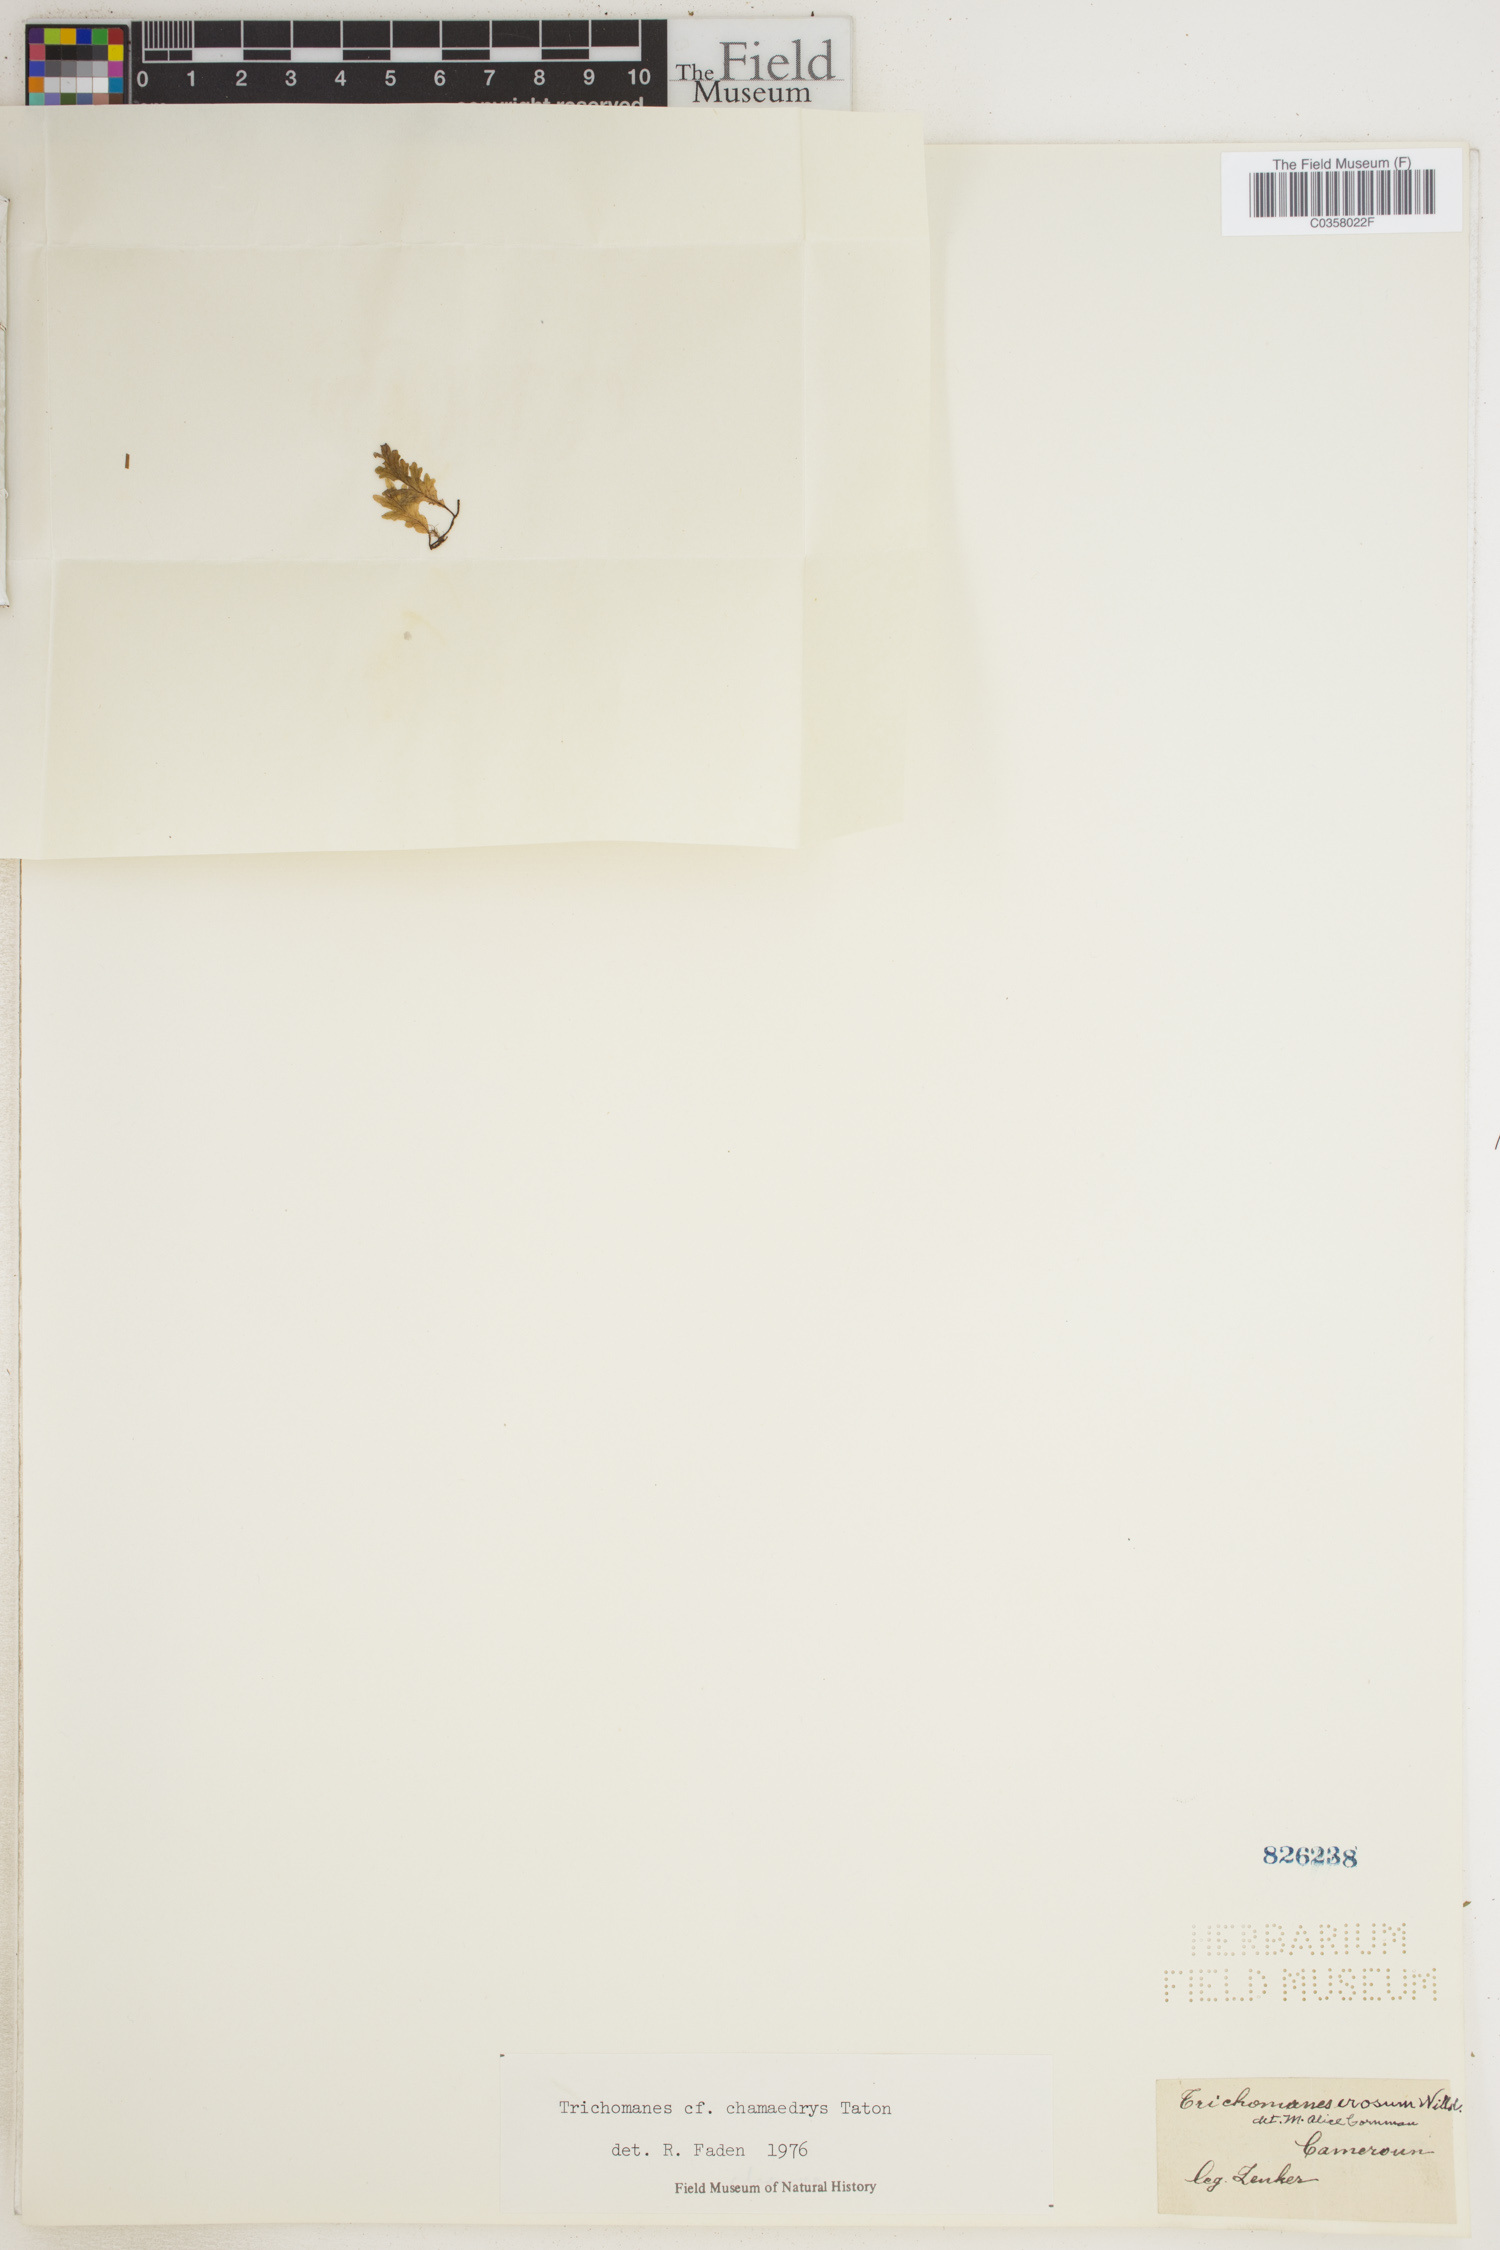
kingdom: Plantae
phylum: Tracheophyta
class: Polypodiopsida
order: Hymenophyllales
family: Hymenophyllaceae
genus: Didymoglossum
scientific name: Didymoglossum erosum
